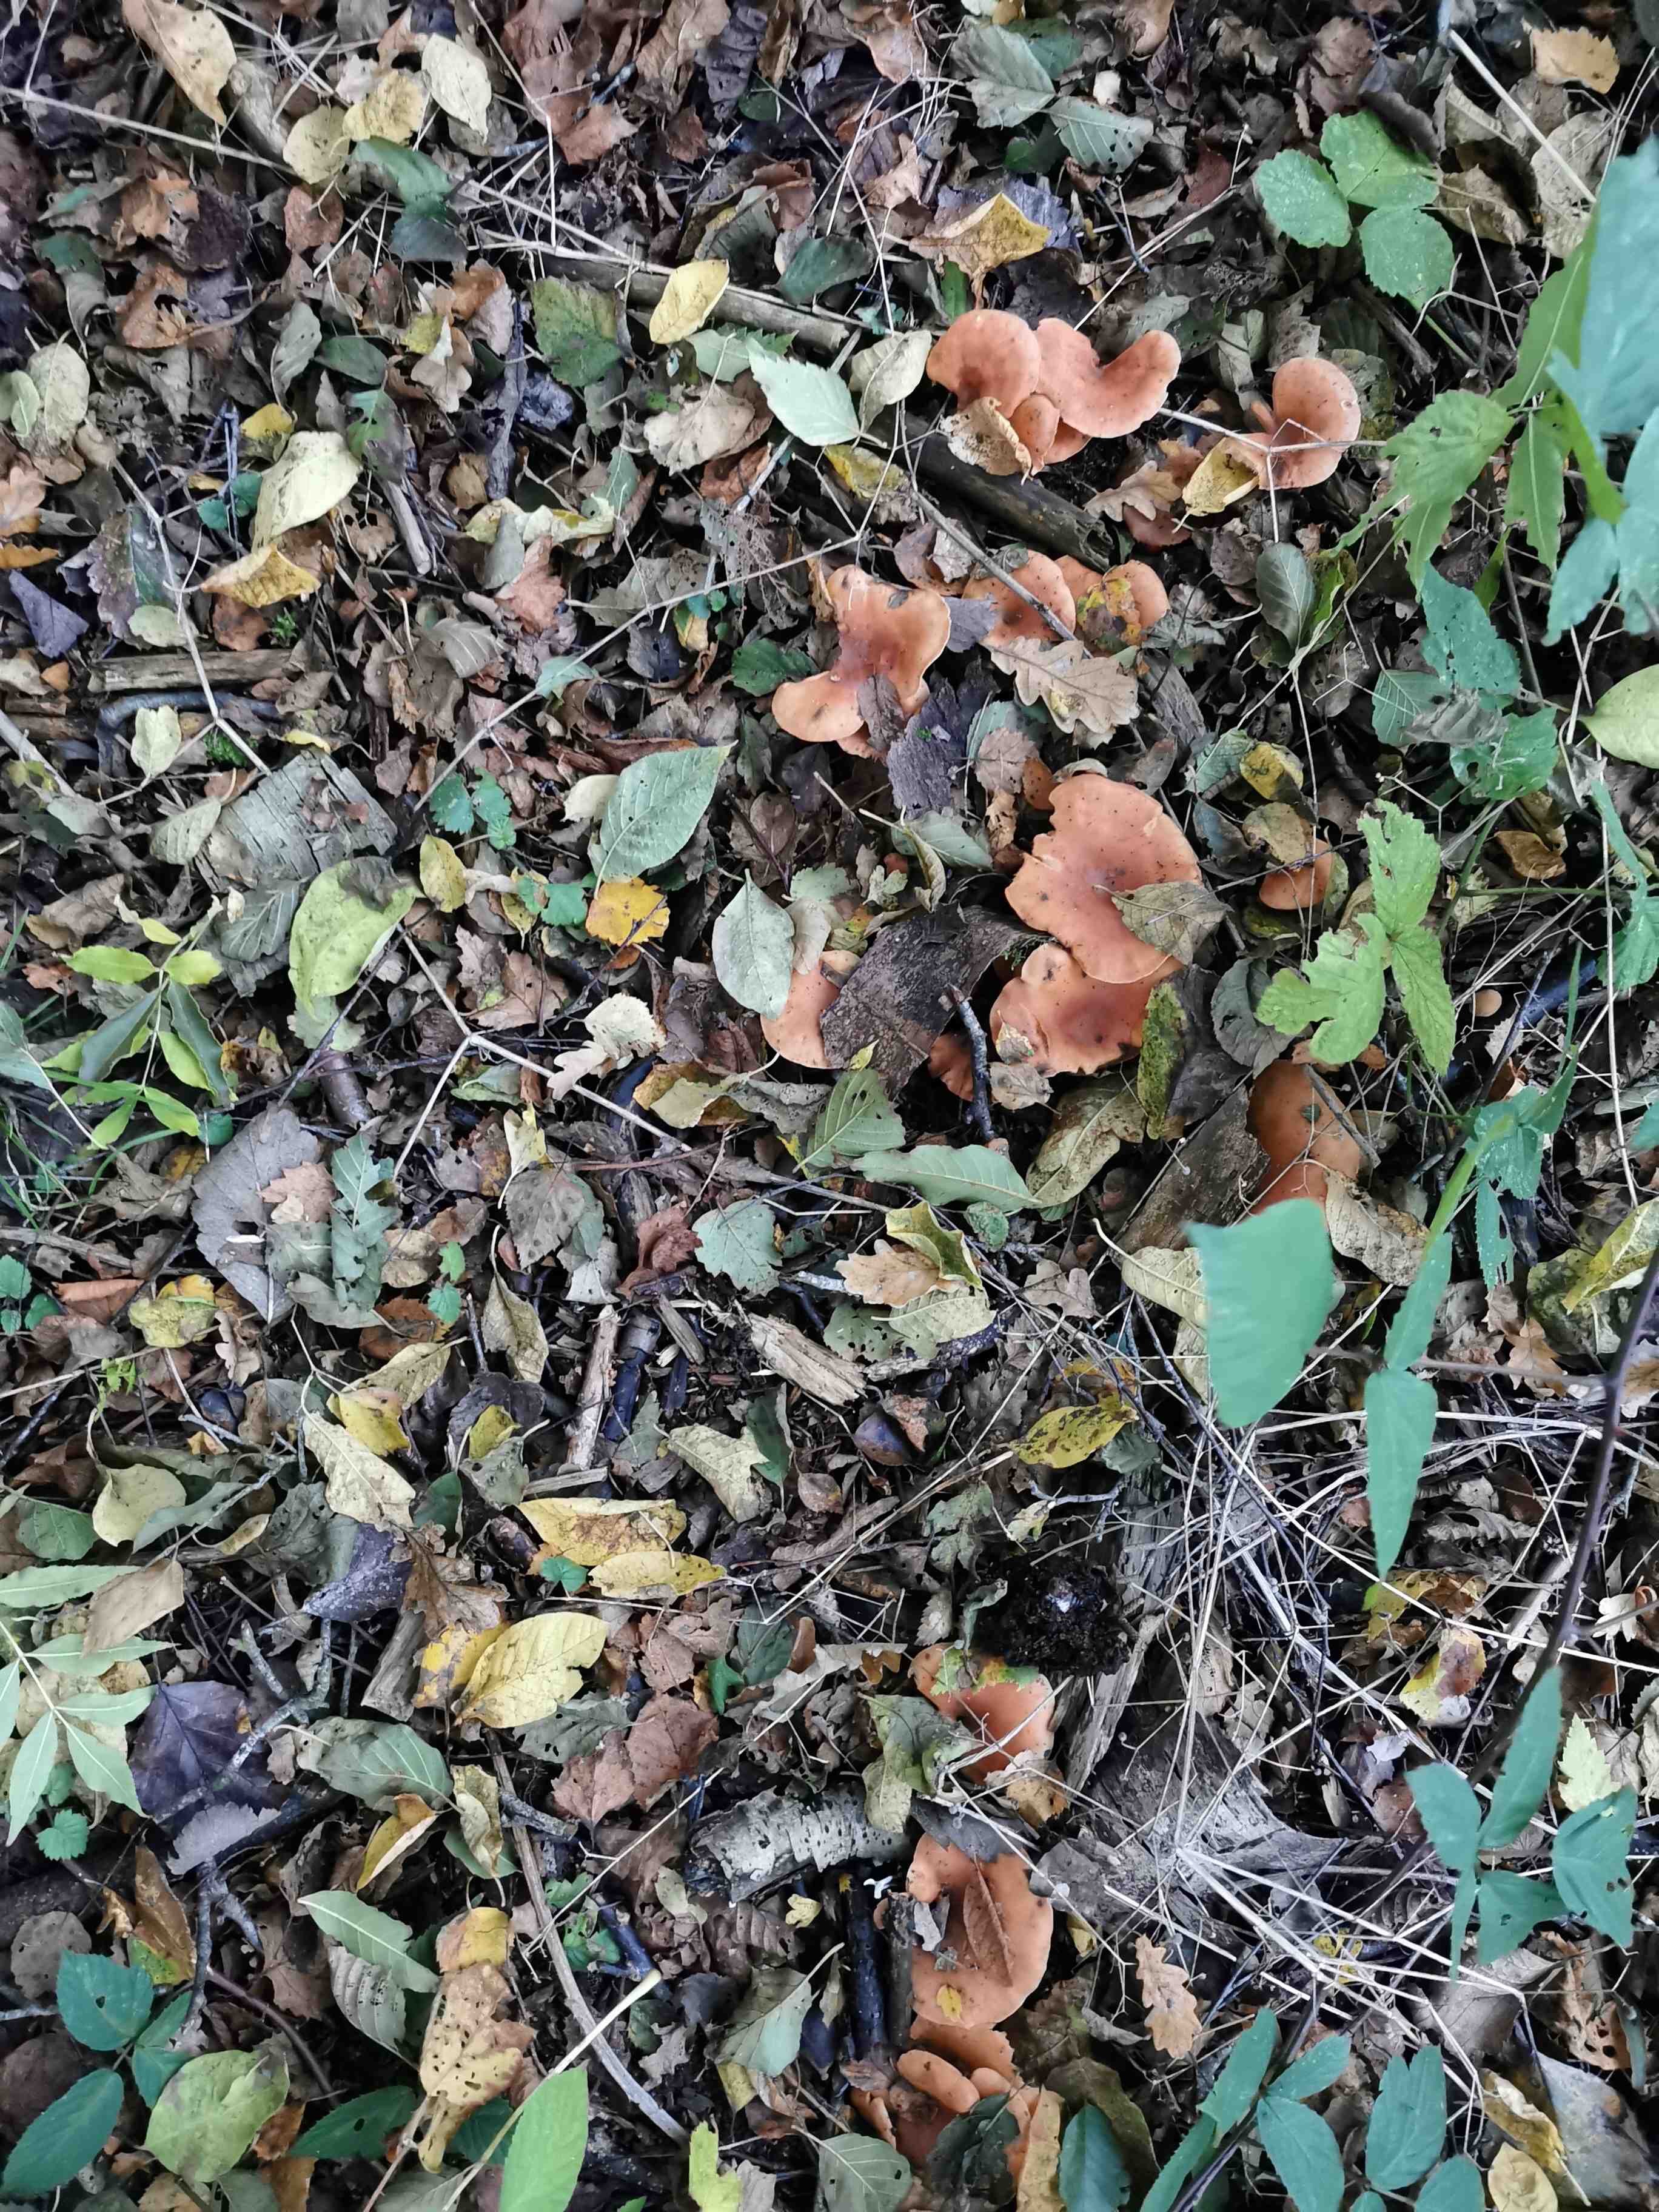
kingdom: Fungi
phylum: Basidiomycota
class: Agaricomycetes
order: Agaricales
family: Tricholomataceae
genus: Paralepista
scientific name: Paralepista flaccida
